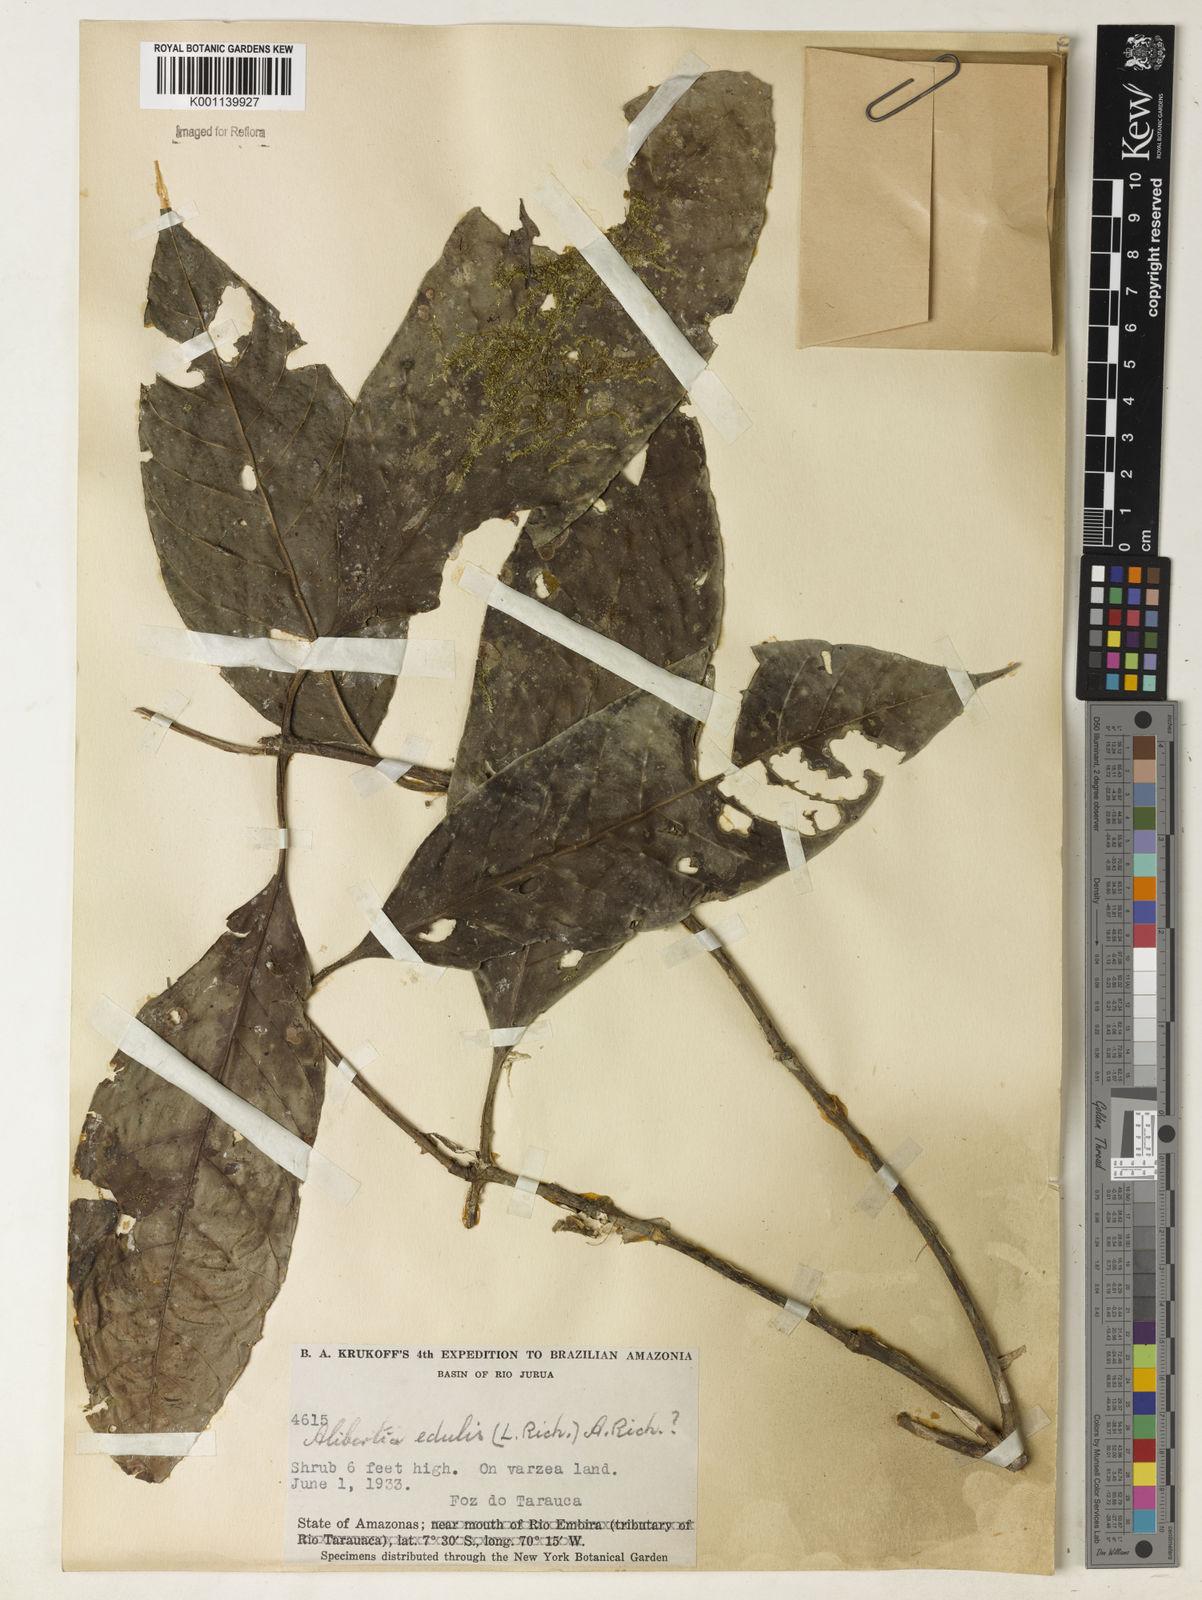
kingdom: Plantae
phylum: Tracheophyta
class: Magnoliopsida
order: Gentianales
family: Rubiaceae
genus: Alibertia
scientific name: Alibertia
